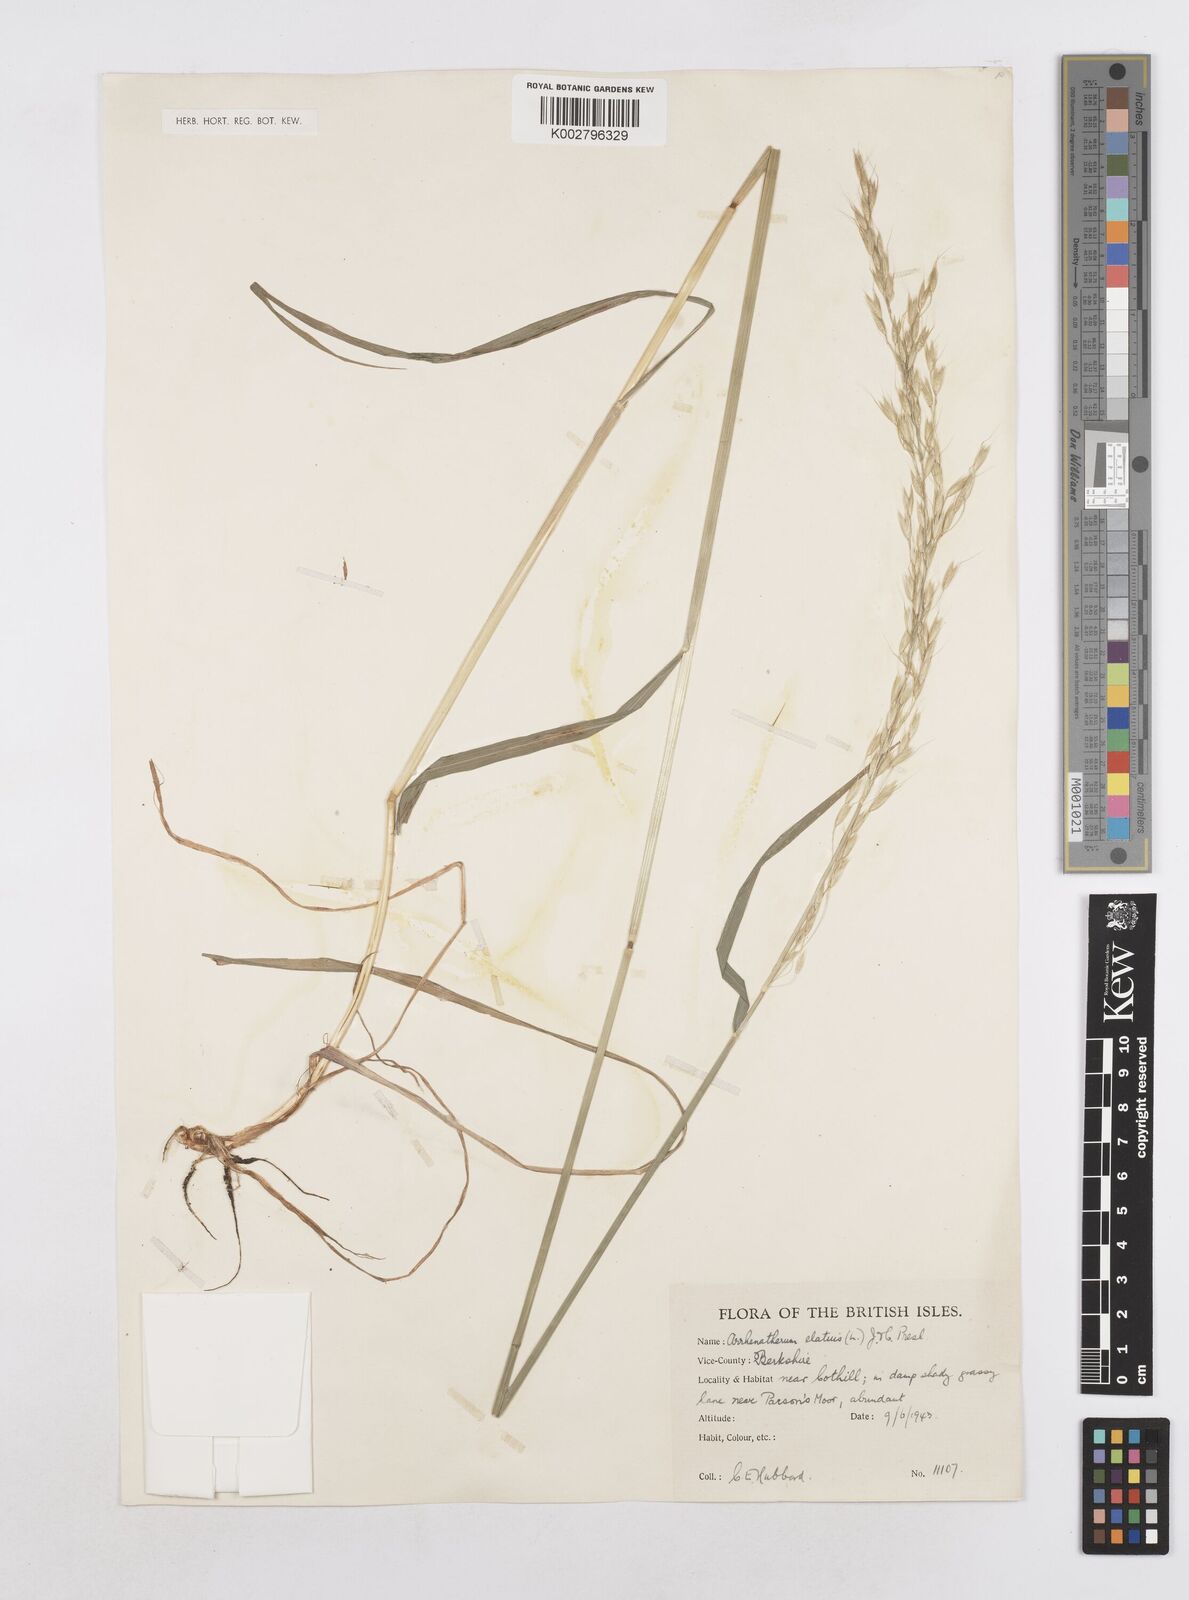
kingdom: Plantae
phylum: Tracheophyta
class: Liliopsida
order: Poales
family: Poaceae
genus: Arrhenatherum
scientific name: Arrhenatherum elatius
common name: Tall oatgrass
